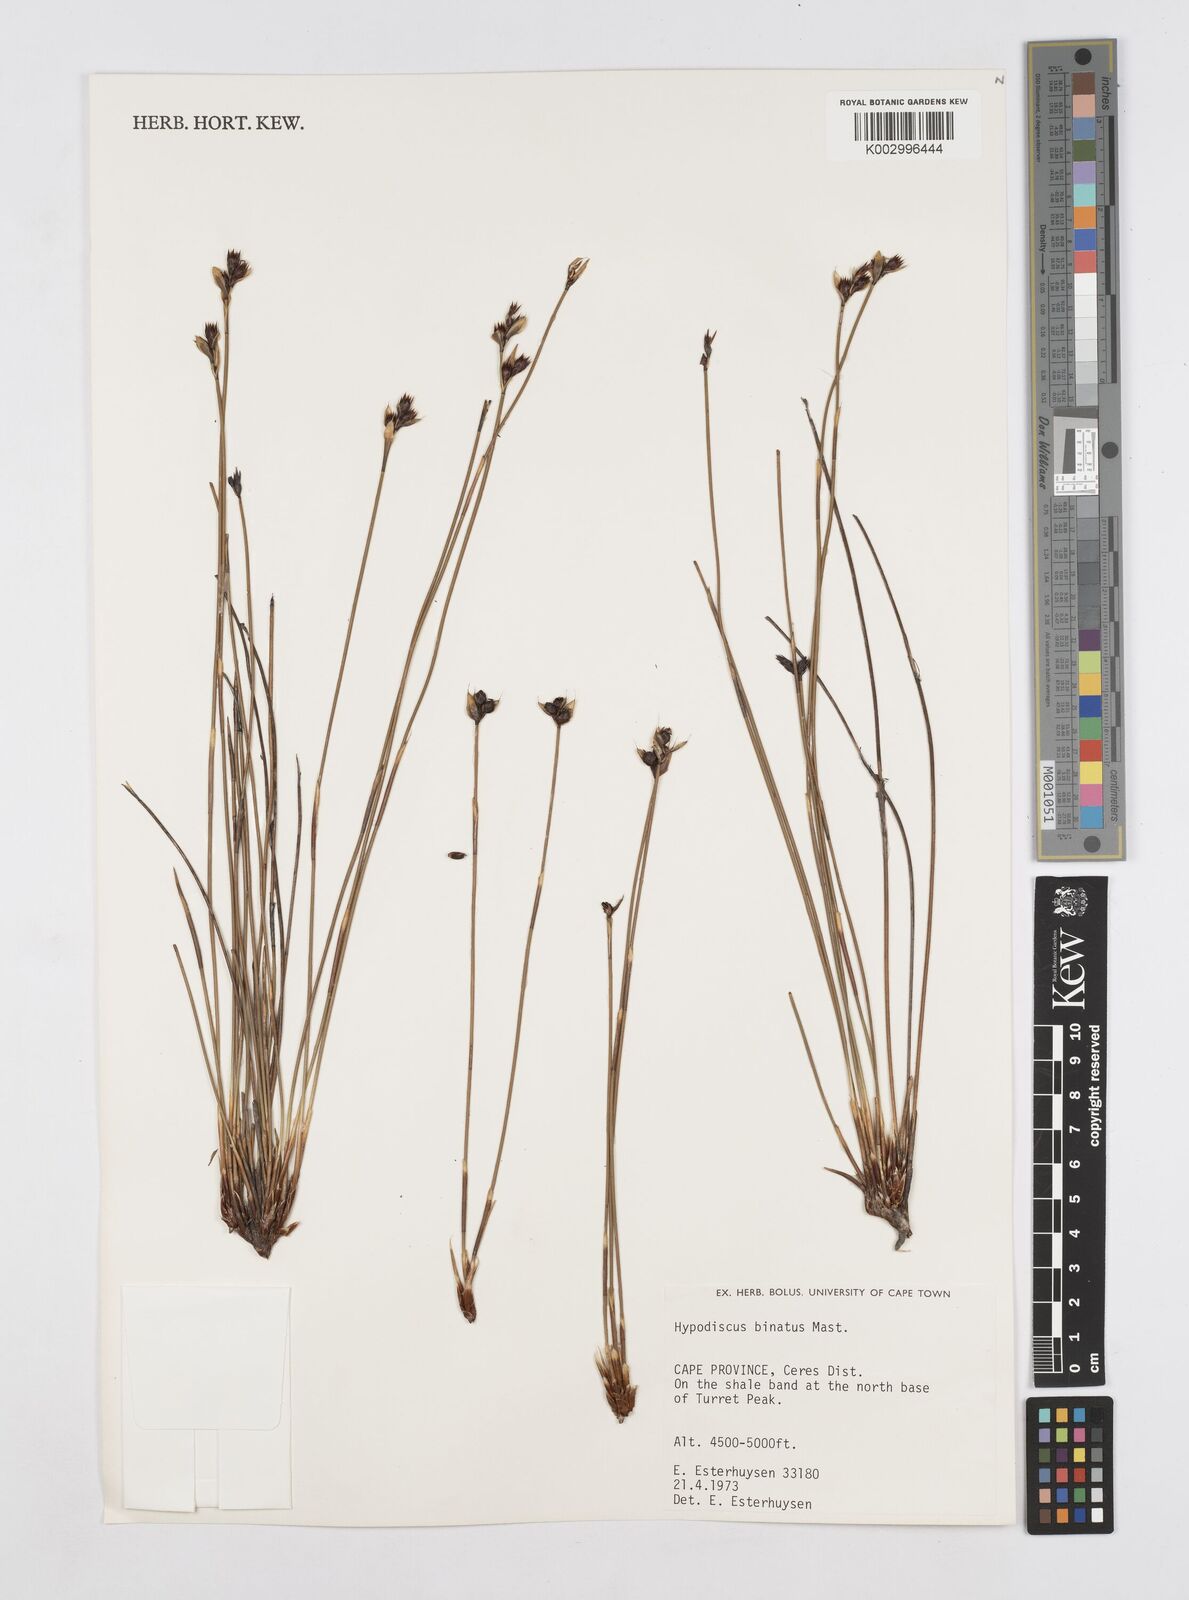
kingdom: Plantae
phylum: Tracheophyta
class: Liliopsida
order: Poales
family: Restionaceae
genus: Hypodiscus
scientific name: Hypodiscus laevigatus
